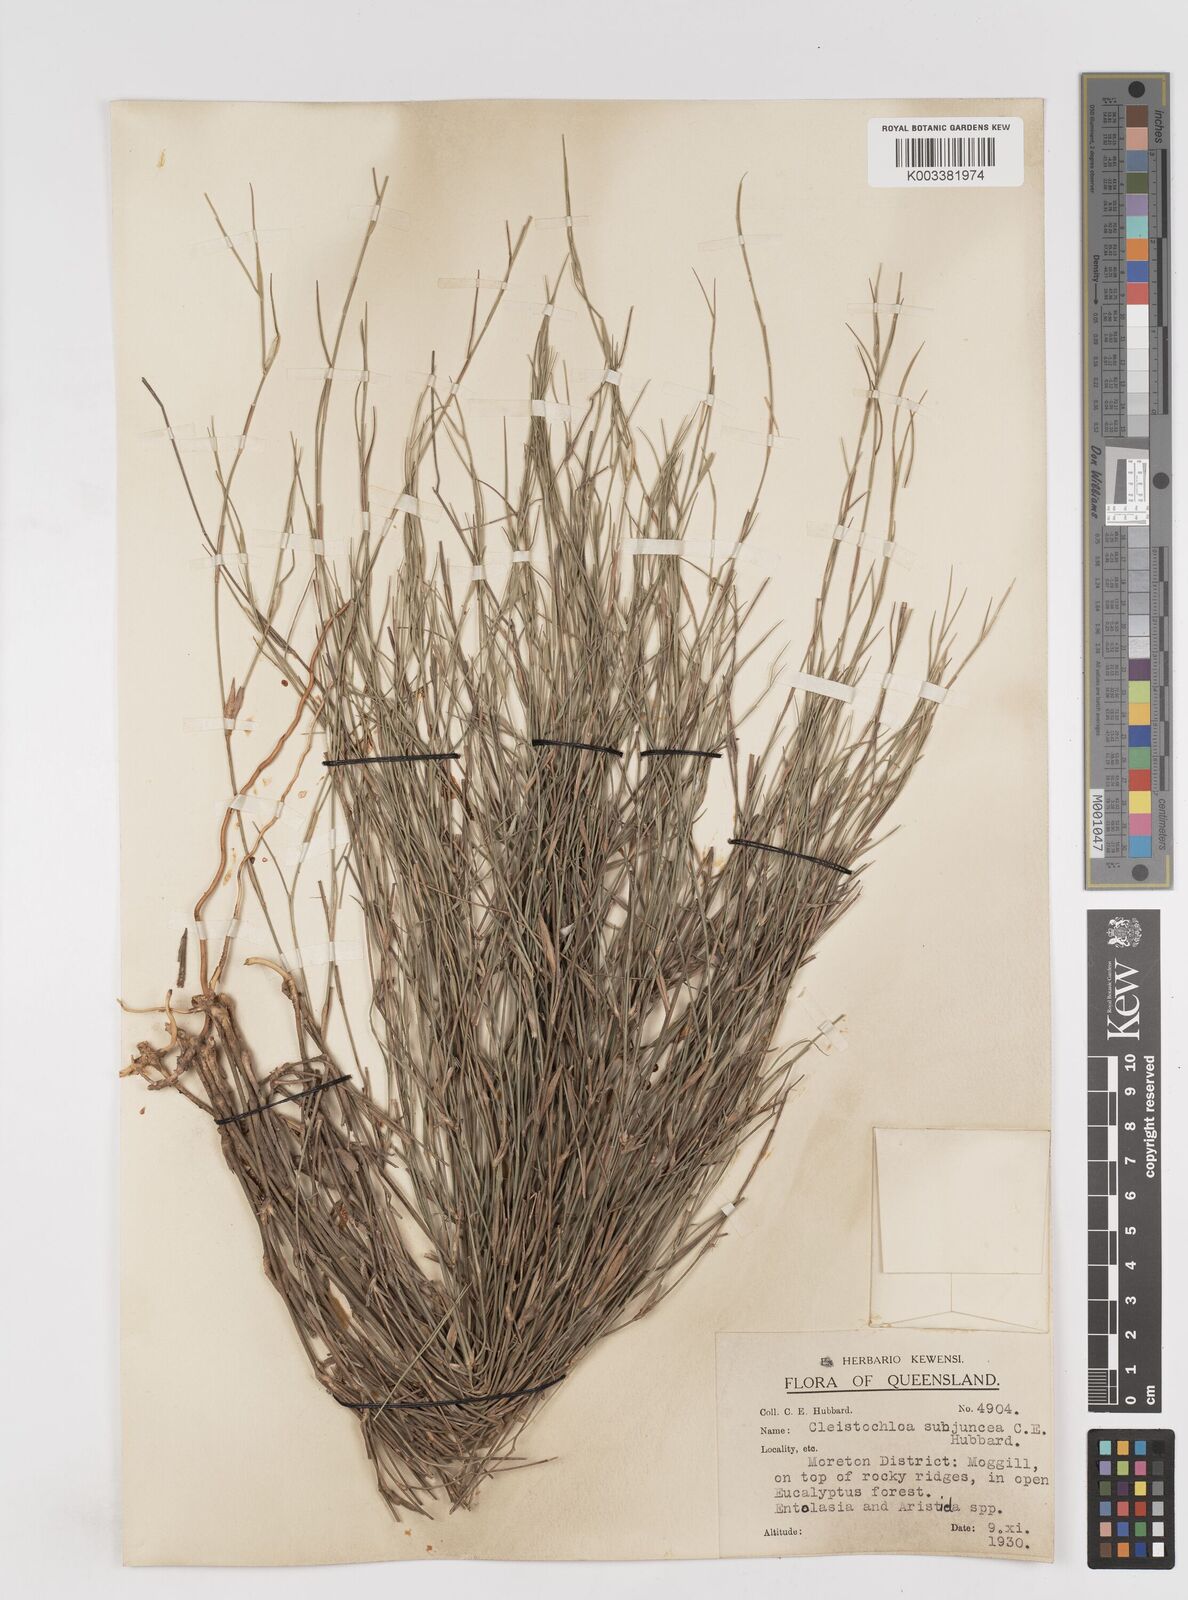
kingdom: Plantae
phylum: Tracheophyta
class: Liliopsida
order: Poales
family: Poaceae
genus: Cleistochloa
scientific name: Cleistochloa subjuncea
